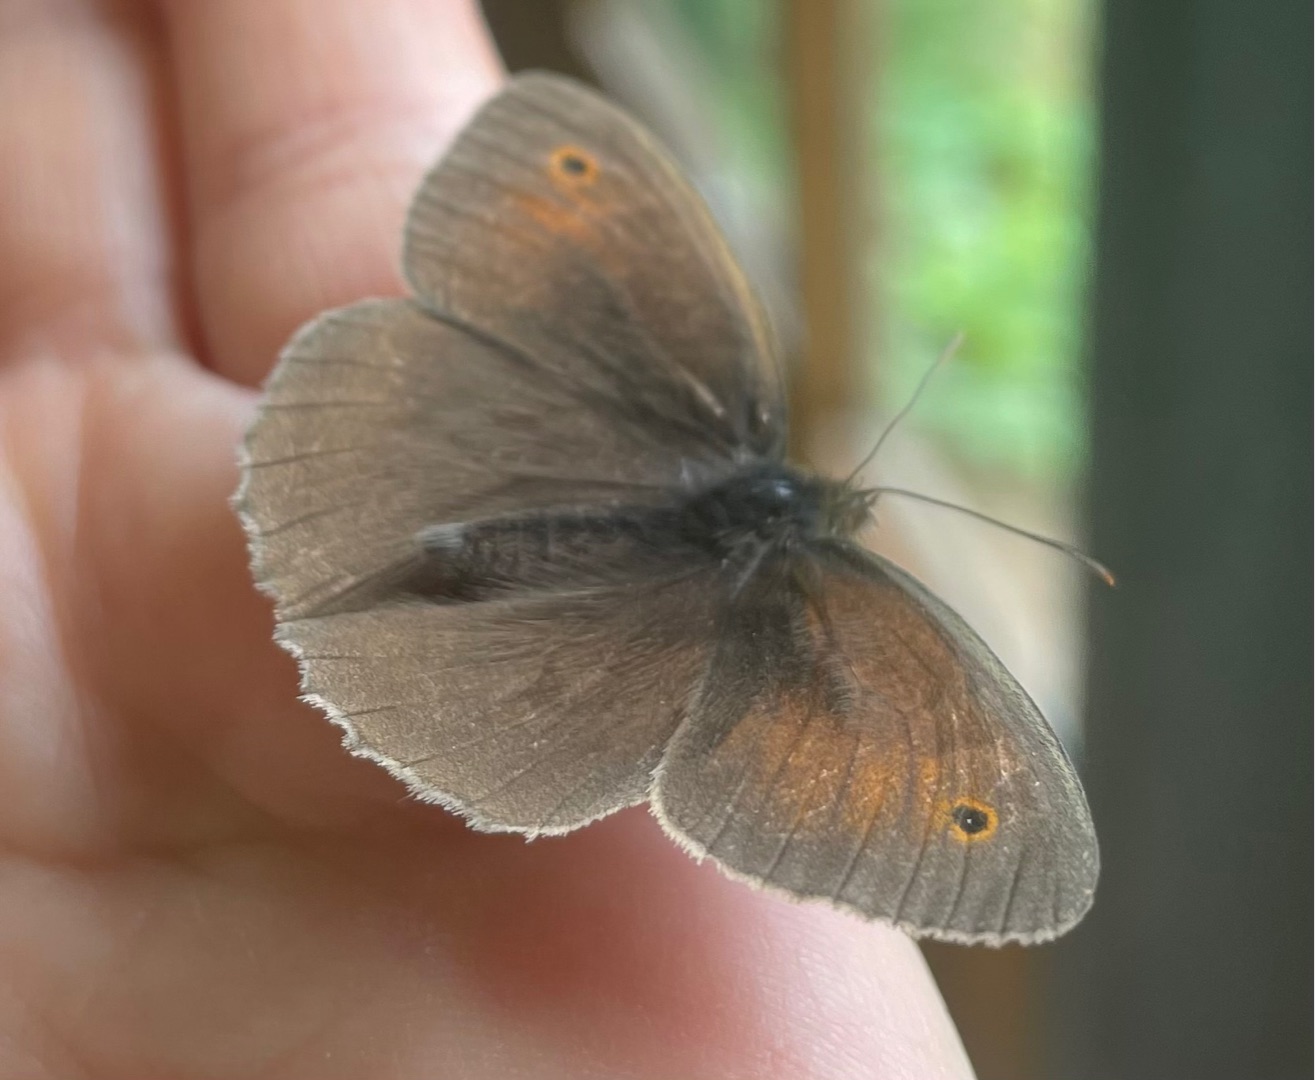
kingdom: Animalia
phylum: Arthropoda
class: Insecta
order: Lepidoptera
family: Nymphalidae
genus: Maniola
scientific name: Maniola jurtina
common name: Græsrandøje
